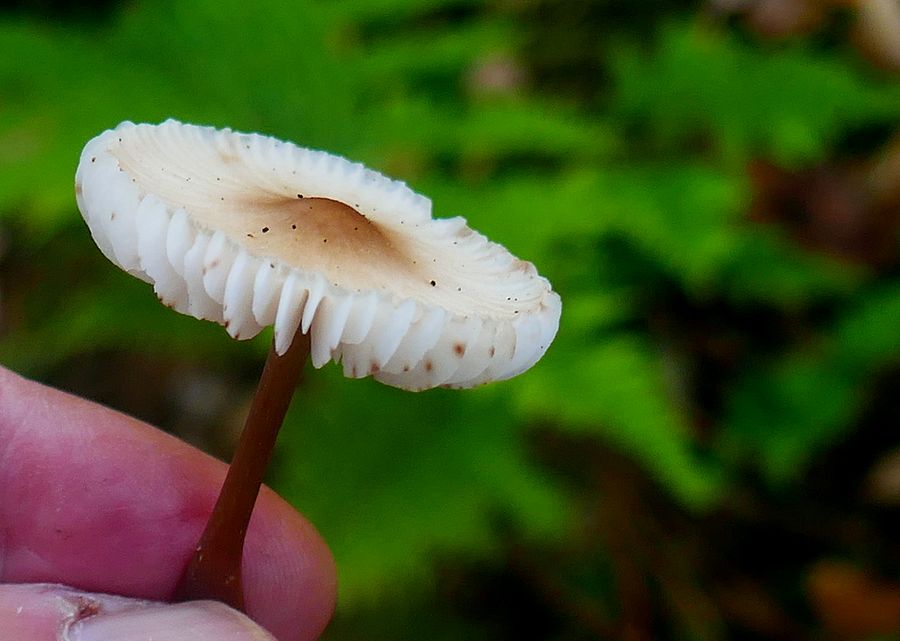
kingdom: Fungi
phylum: Basidiomycota
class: Agaricomycetes
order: Agaricales
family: Tricholomataceae
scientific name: Tricholomataceae
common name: ridderhatfamilien
